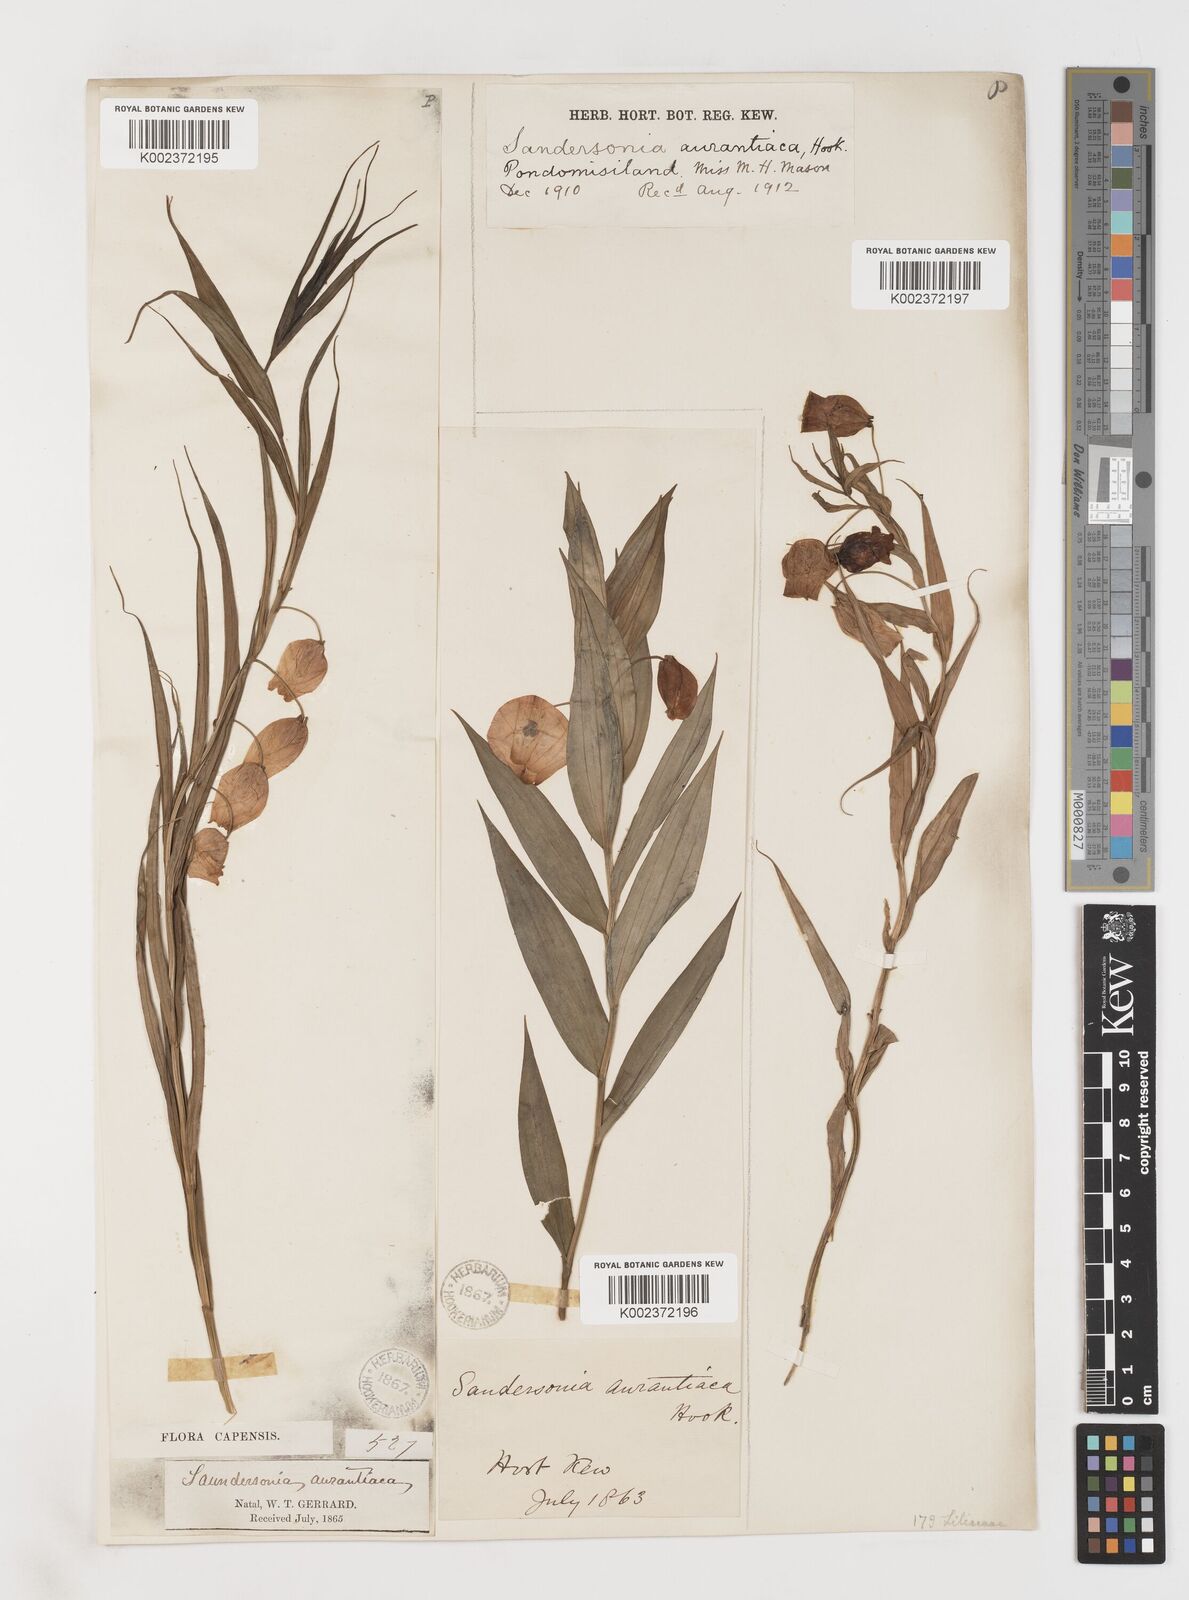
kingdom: Plantae
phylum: Tracheophyta
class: Liliopsida
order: Liliales
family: Colchicaceae
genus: Sandersonia
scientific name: Sandersonia aurantiaca
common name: Chinese-lantern-lily
